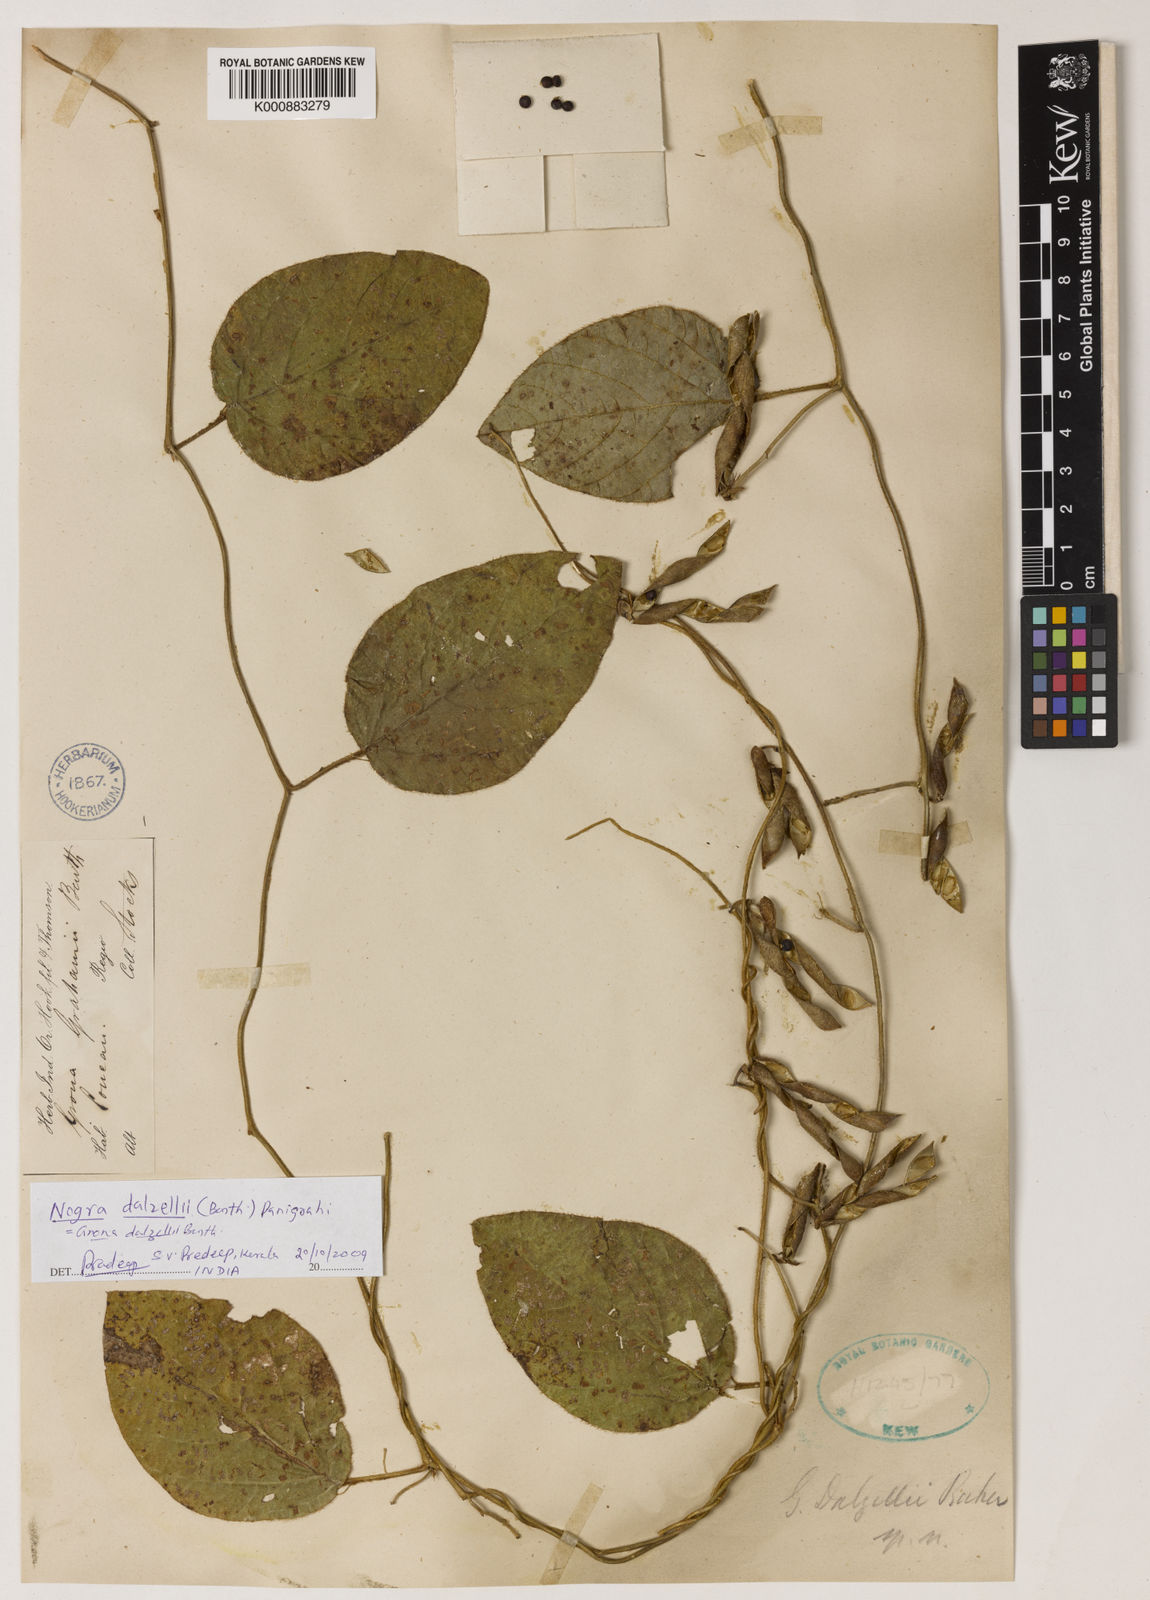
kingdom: Plantae
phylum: Tracheophyta
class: Magnoliopsida
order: Fabales
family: Fabaceae
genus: Nogra
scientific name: Nogra
